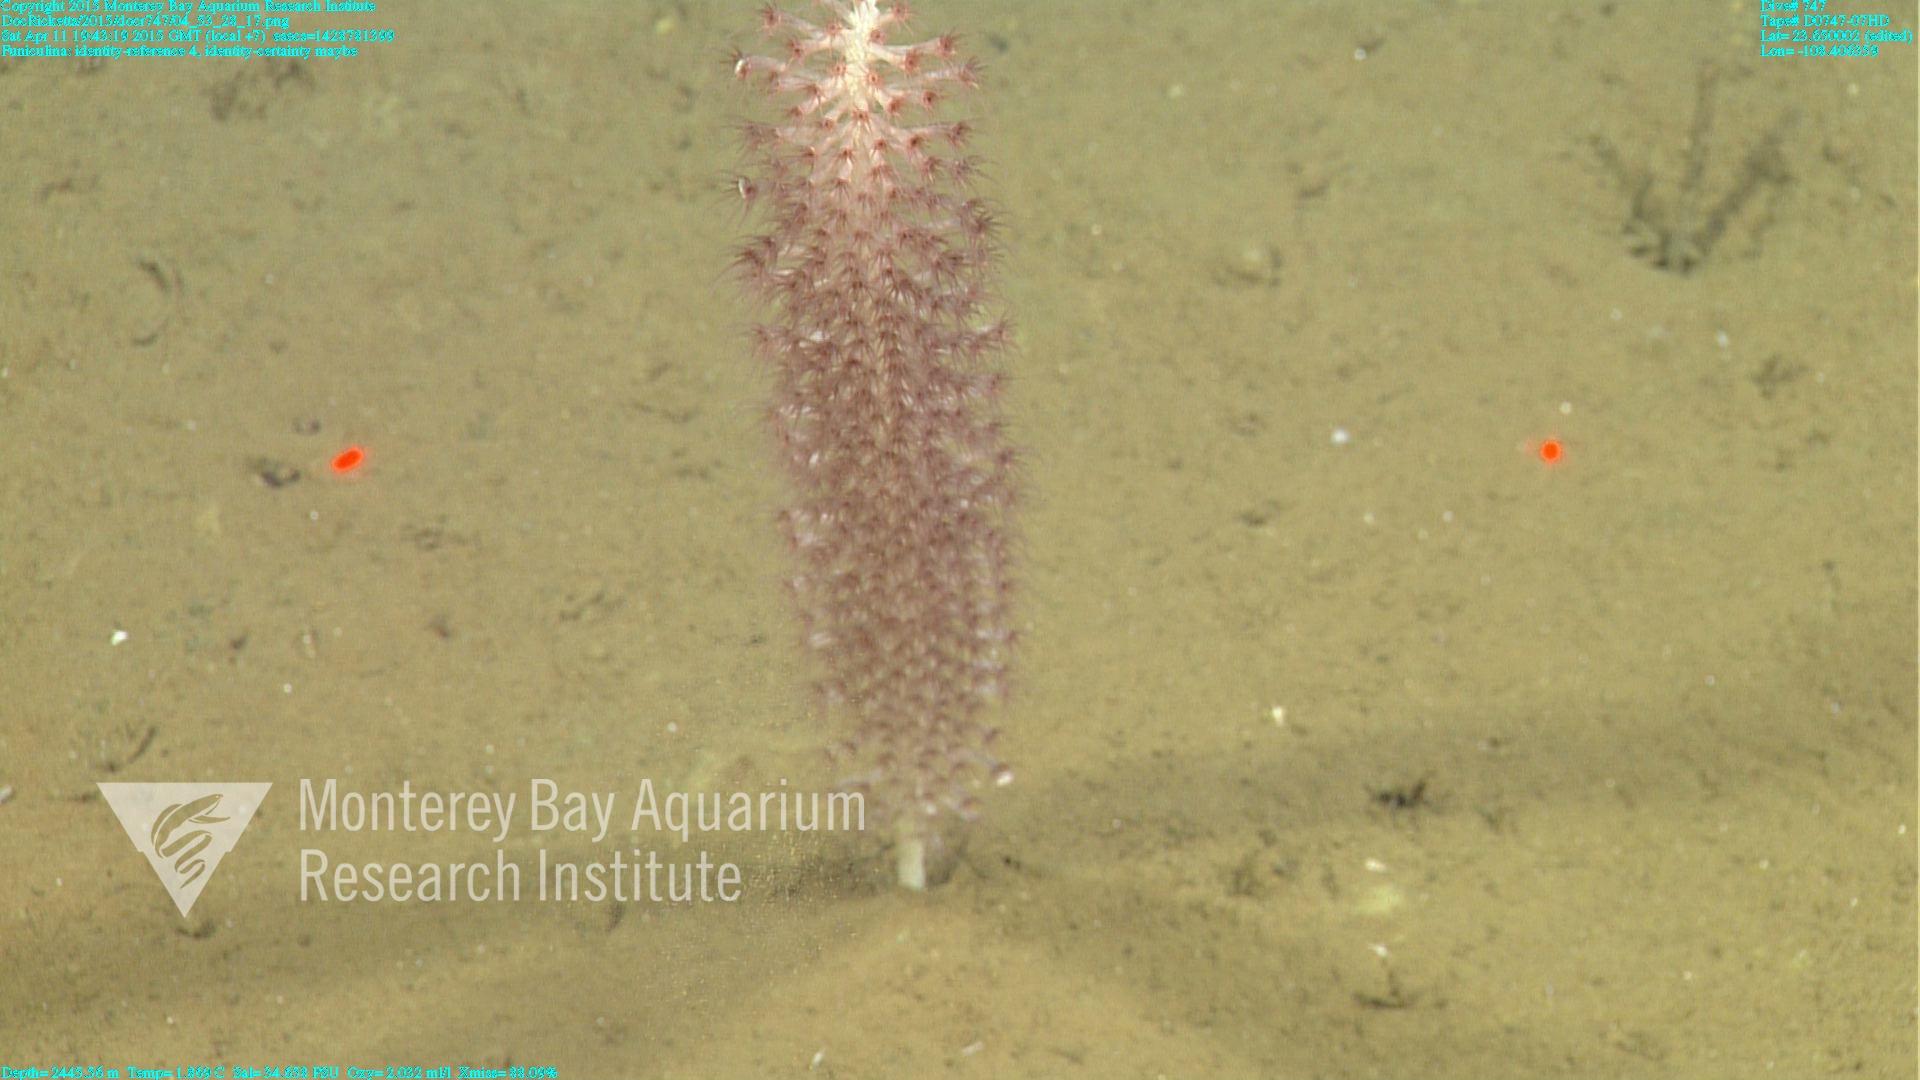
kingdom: Animalia
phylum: Cnidaria
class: Anthozoa
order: Scleralcyonacea
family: Funiculinidae
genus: Funiculina
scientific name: Funiculina
